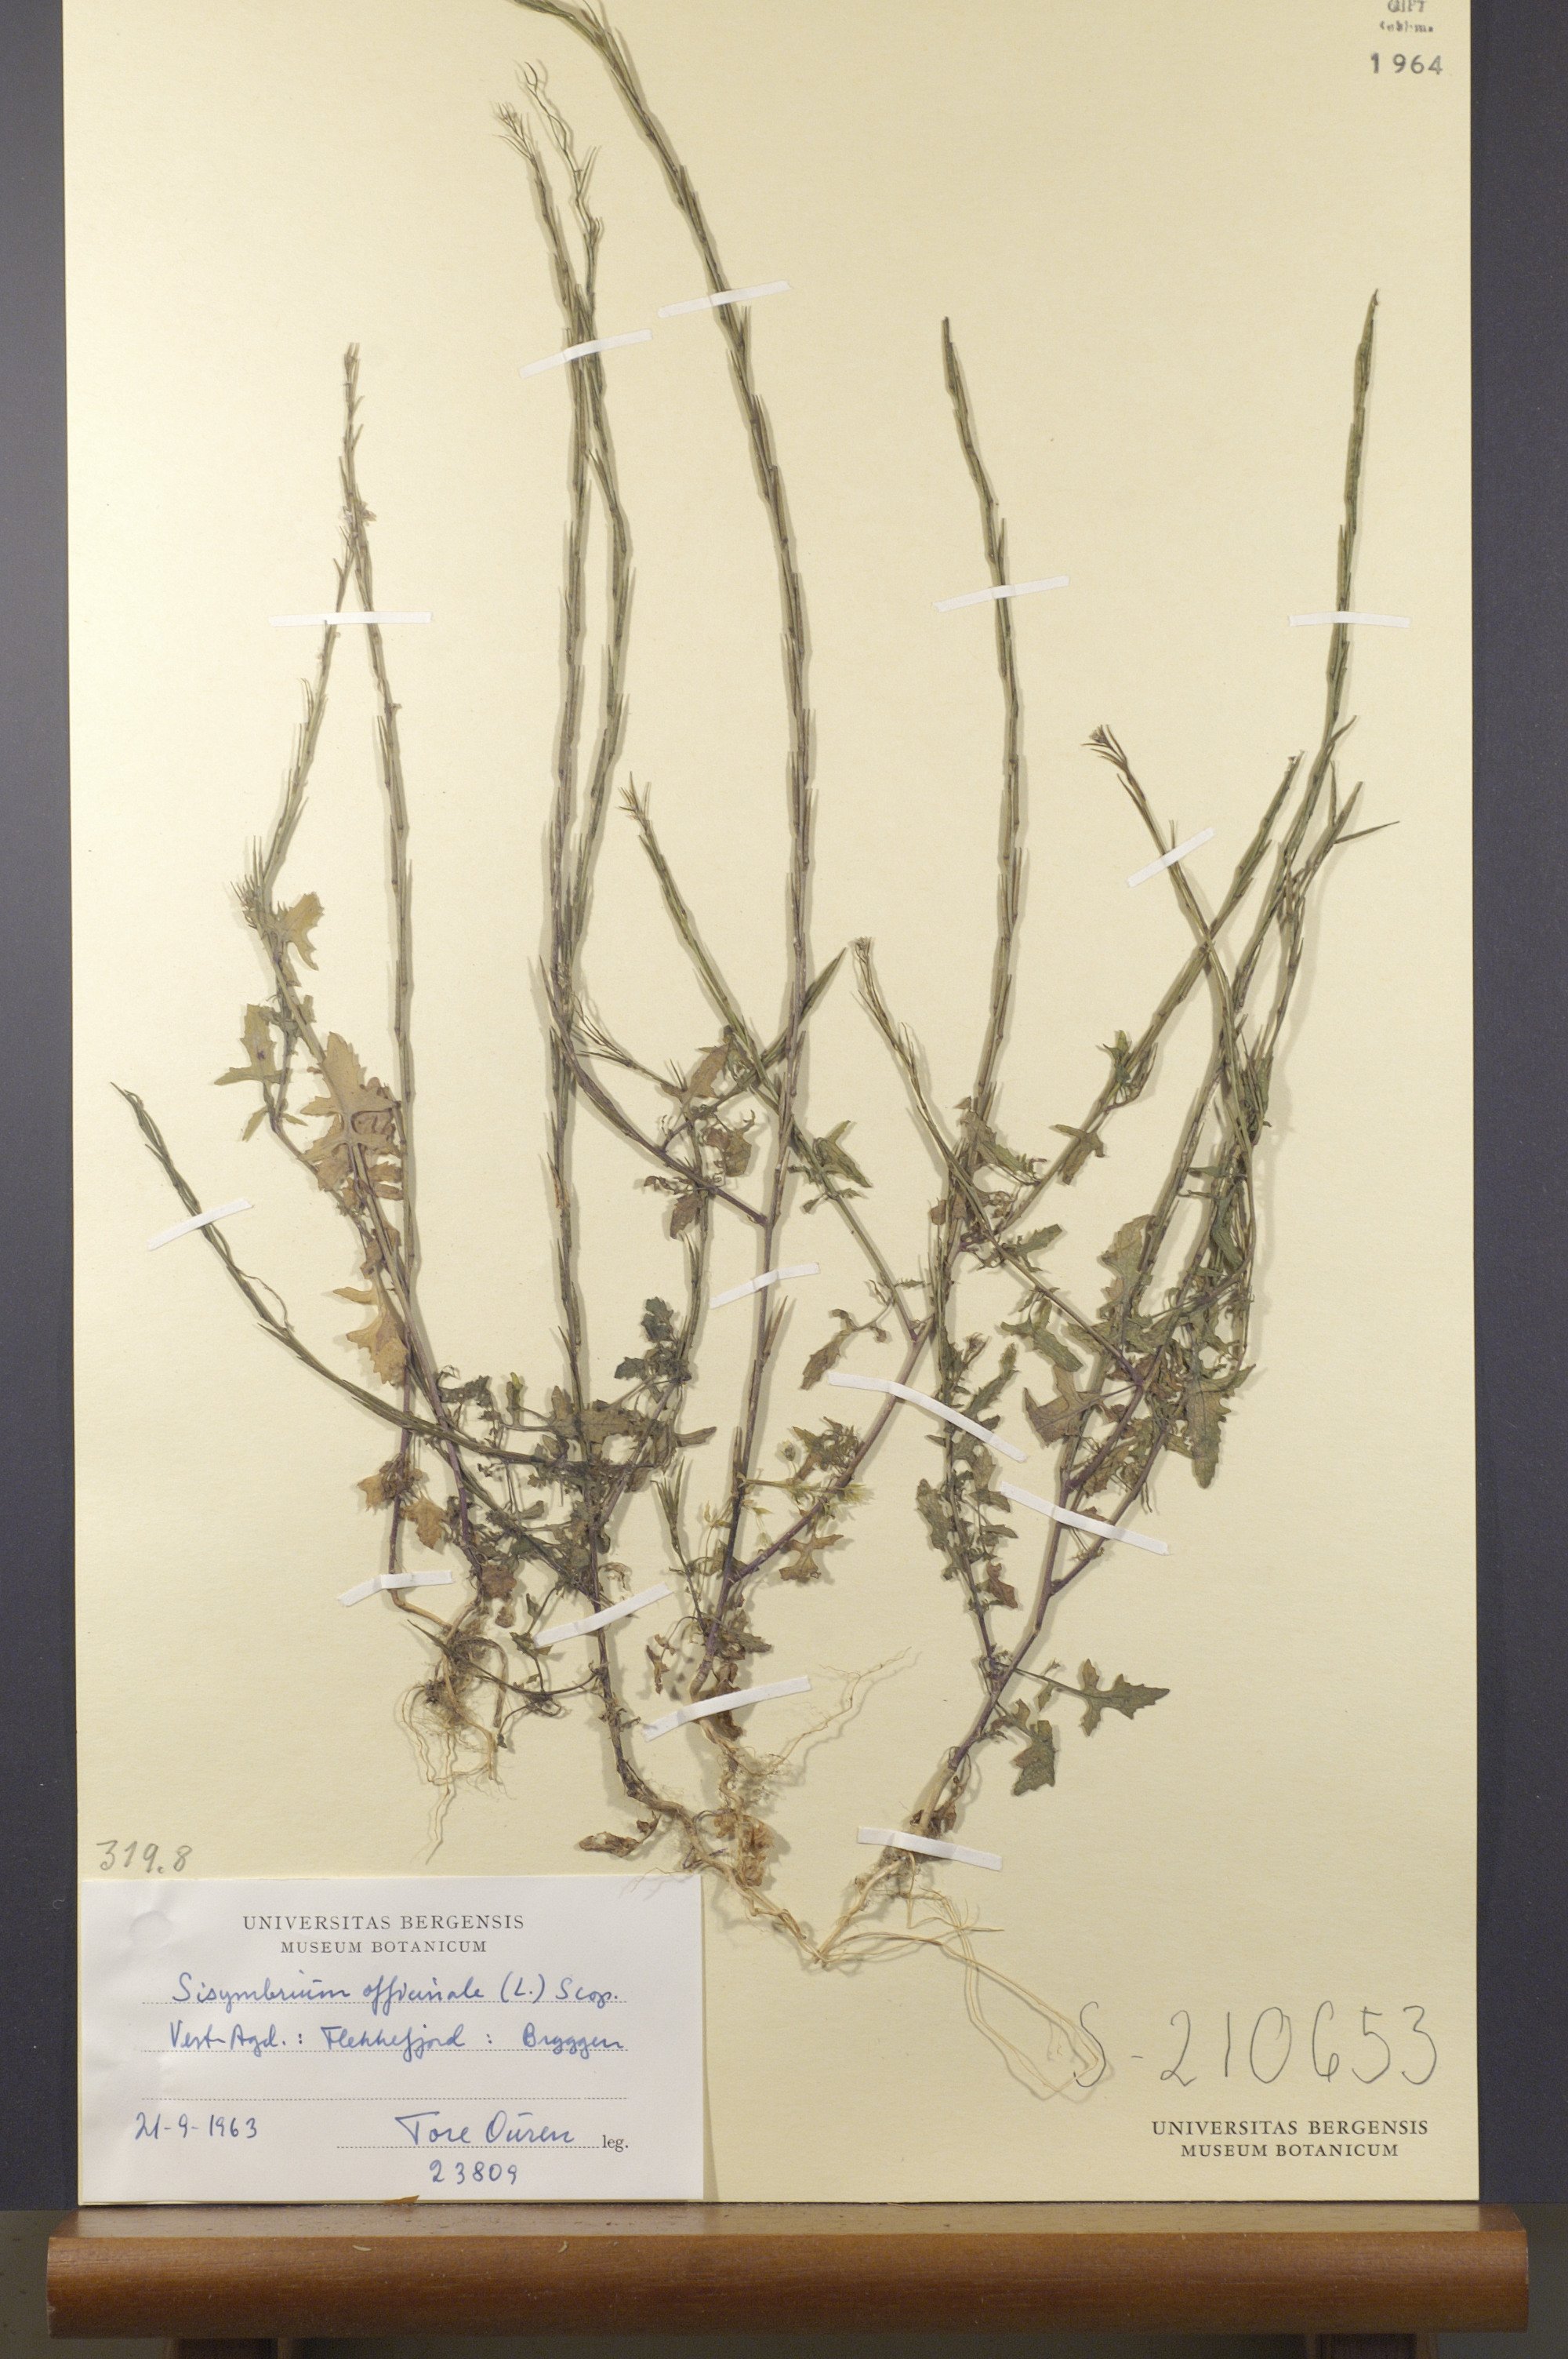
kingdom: Plantae
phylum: Tracheophyta
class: Magnoliopsida
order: Brassicales
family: Brassicaceae
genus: Sisymbrium
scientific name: Sisymbrium officinale
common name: Hedge mustard
